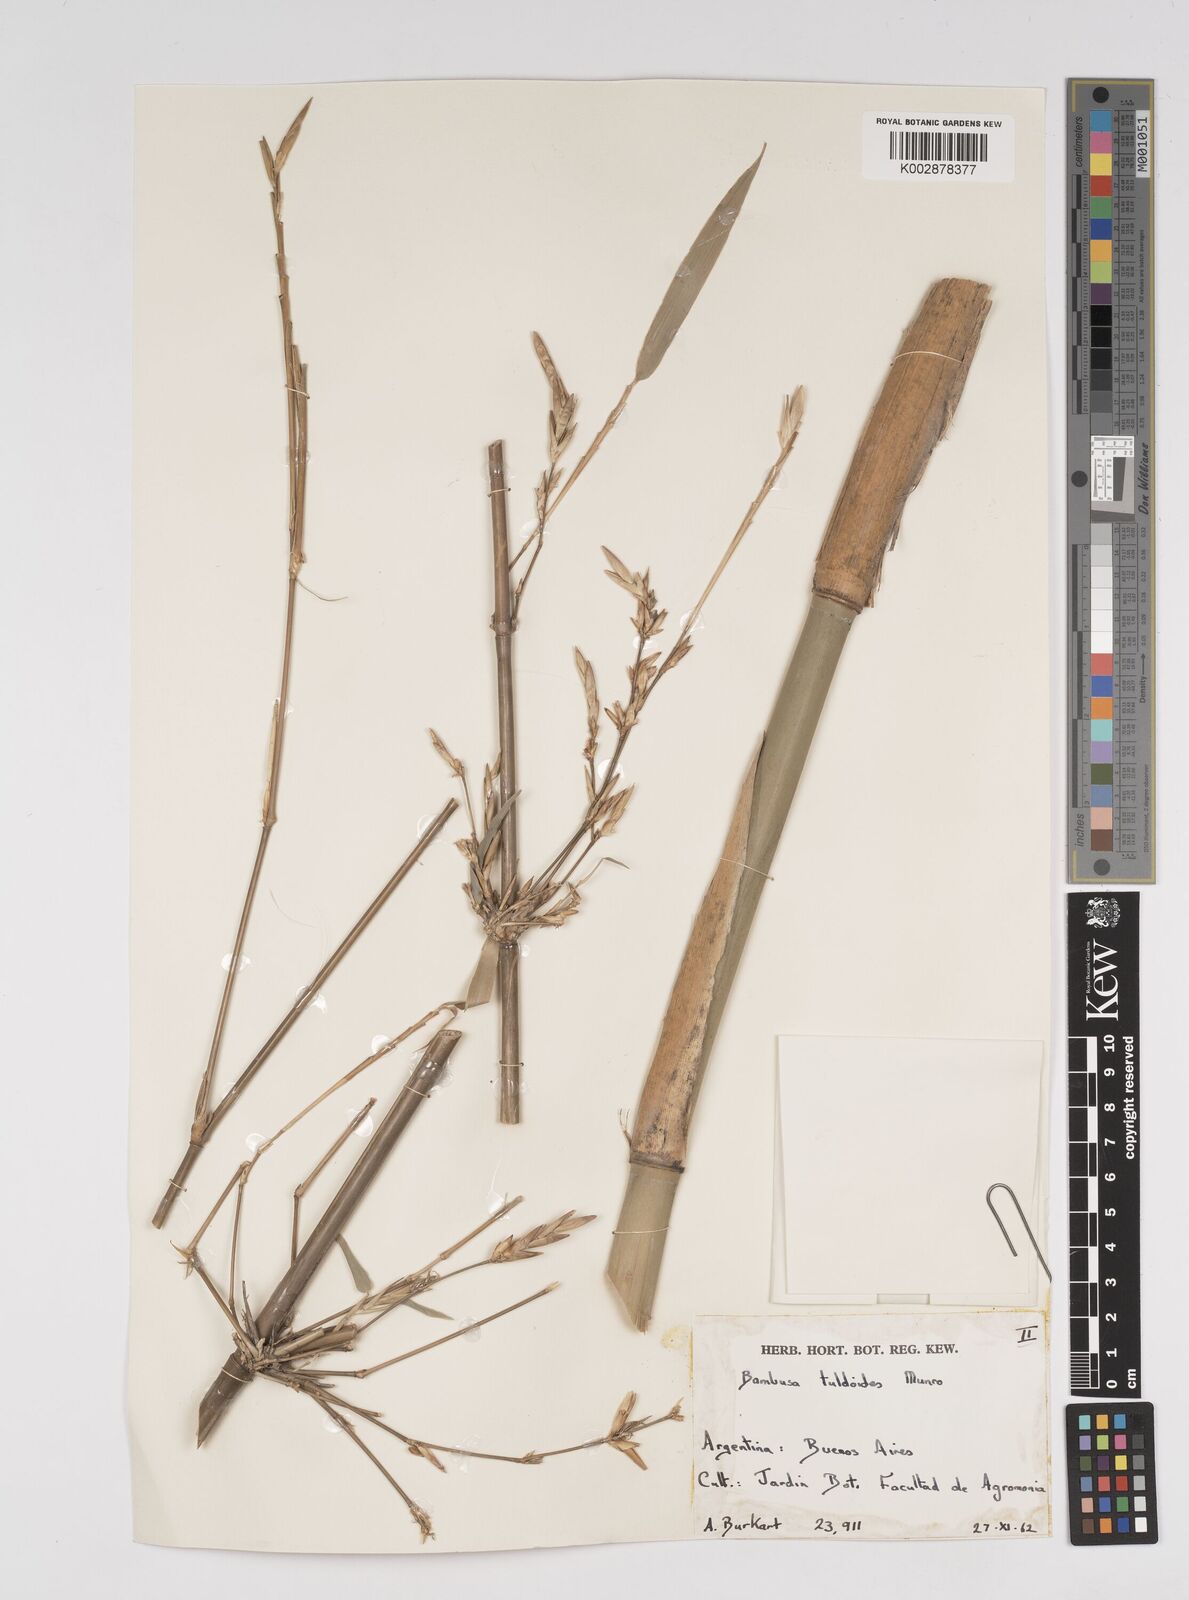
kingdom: Plantae
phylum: Tracheophyta
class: Liliopsida
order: Poales
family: Poaceae
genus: Bambusa
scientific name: Bambusa tuldoides
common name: Verdant bamboo
